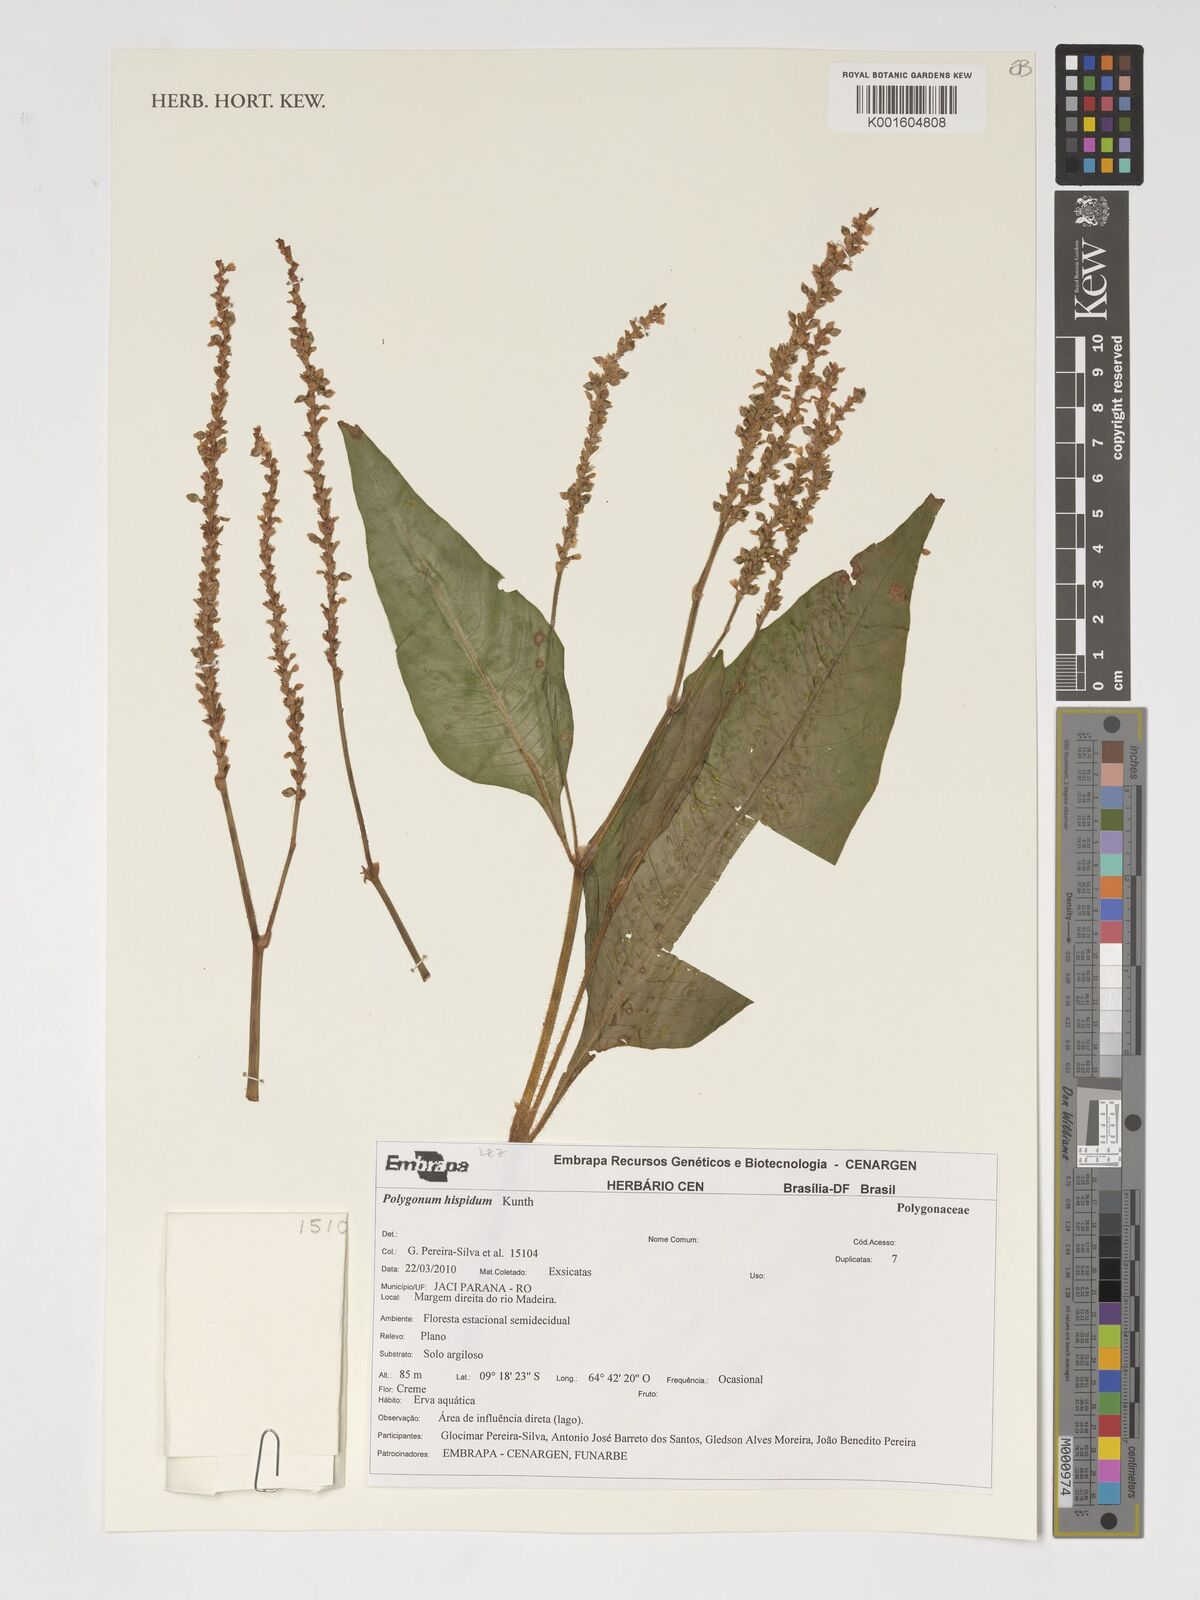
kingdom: Plantae
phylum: Tracheophyta
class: Magnoliopsida
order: Caryophyllales
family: Polygonaceae
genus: Persicaria
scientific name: Persicaria hispida
